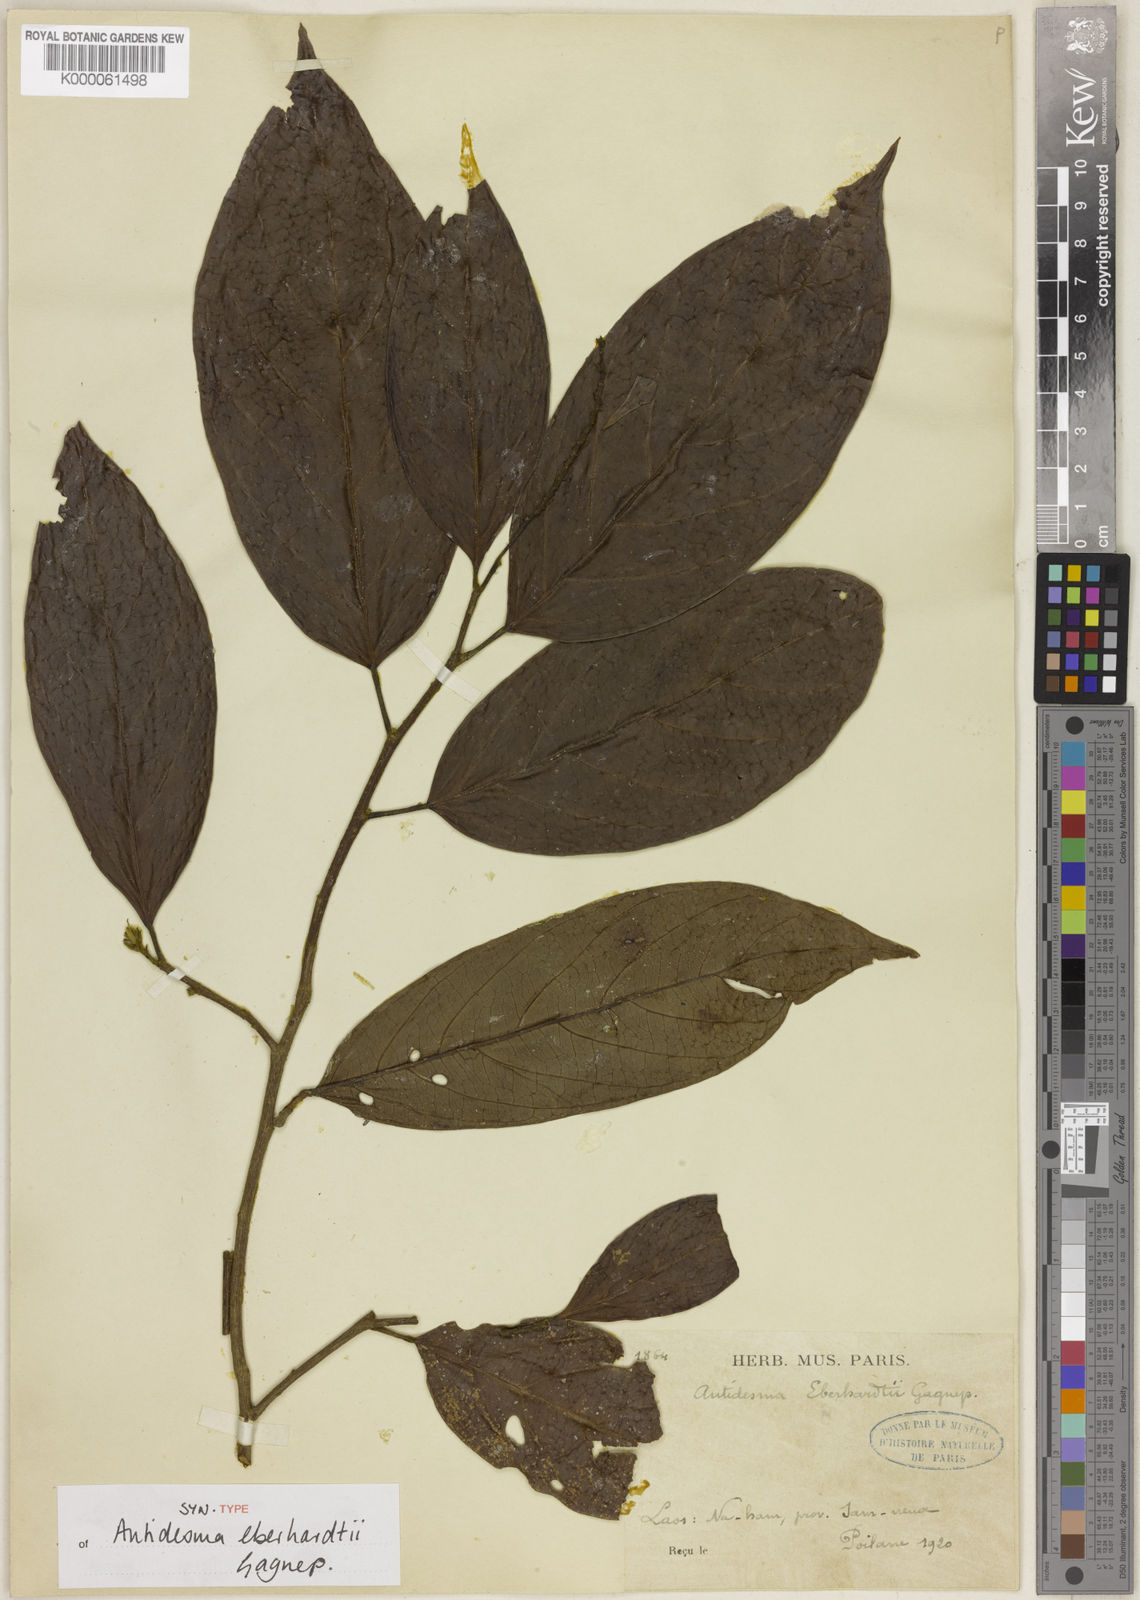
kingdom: Plantae
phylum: Tracheophyta
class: Magnoliopsida
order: Malpighiales
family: Phyllanthaceae
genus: Antidesma
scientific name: Antidesma eberhardtii
